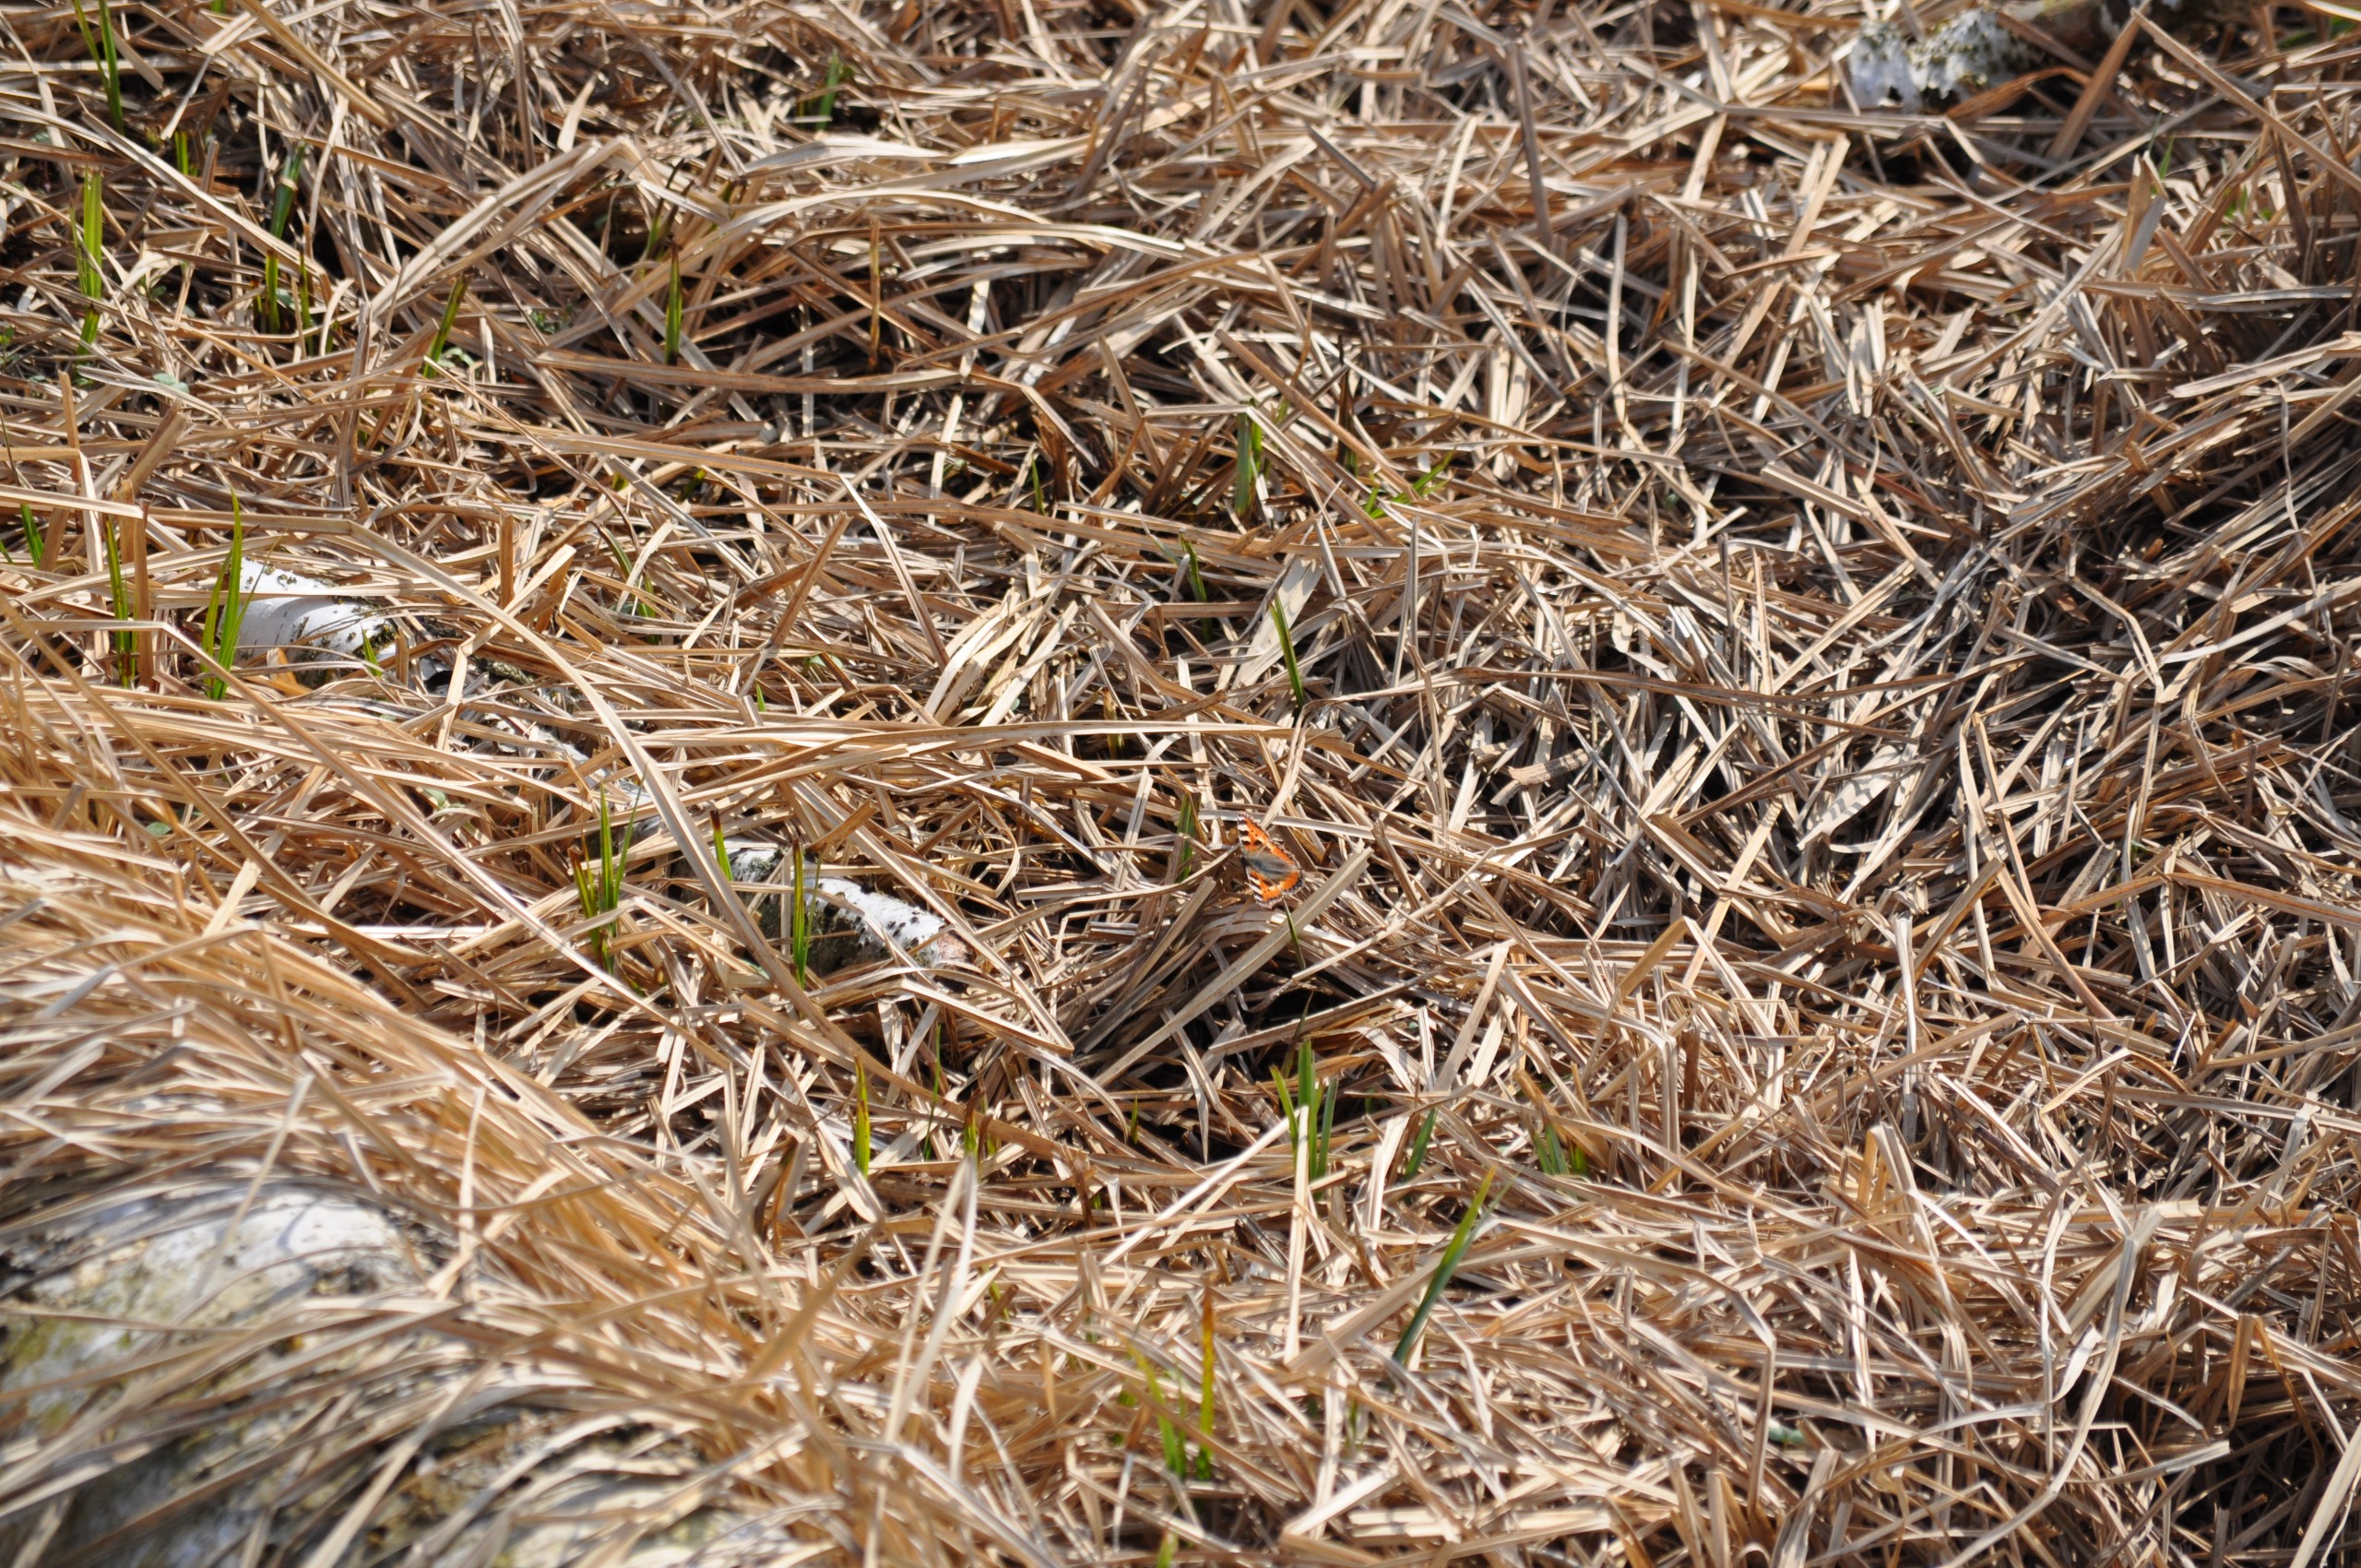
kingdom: Animalia
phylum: Arthropoda
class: Insecta
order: Lepidoptera
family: Nymphalidae
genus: Aglais
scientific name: Aglais urticae
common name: Nældens takvinge
